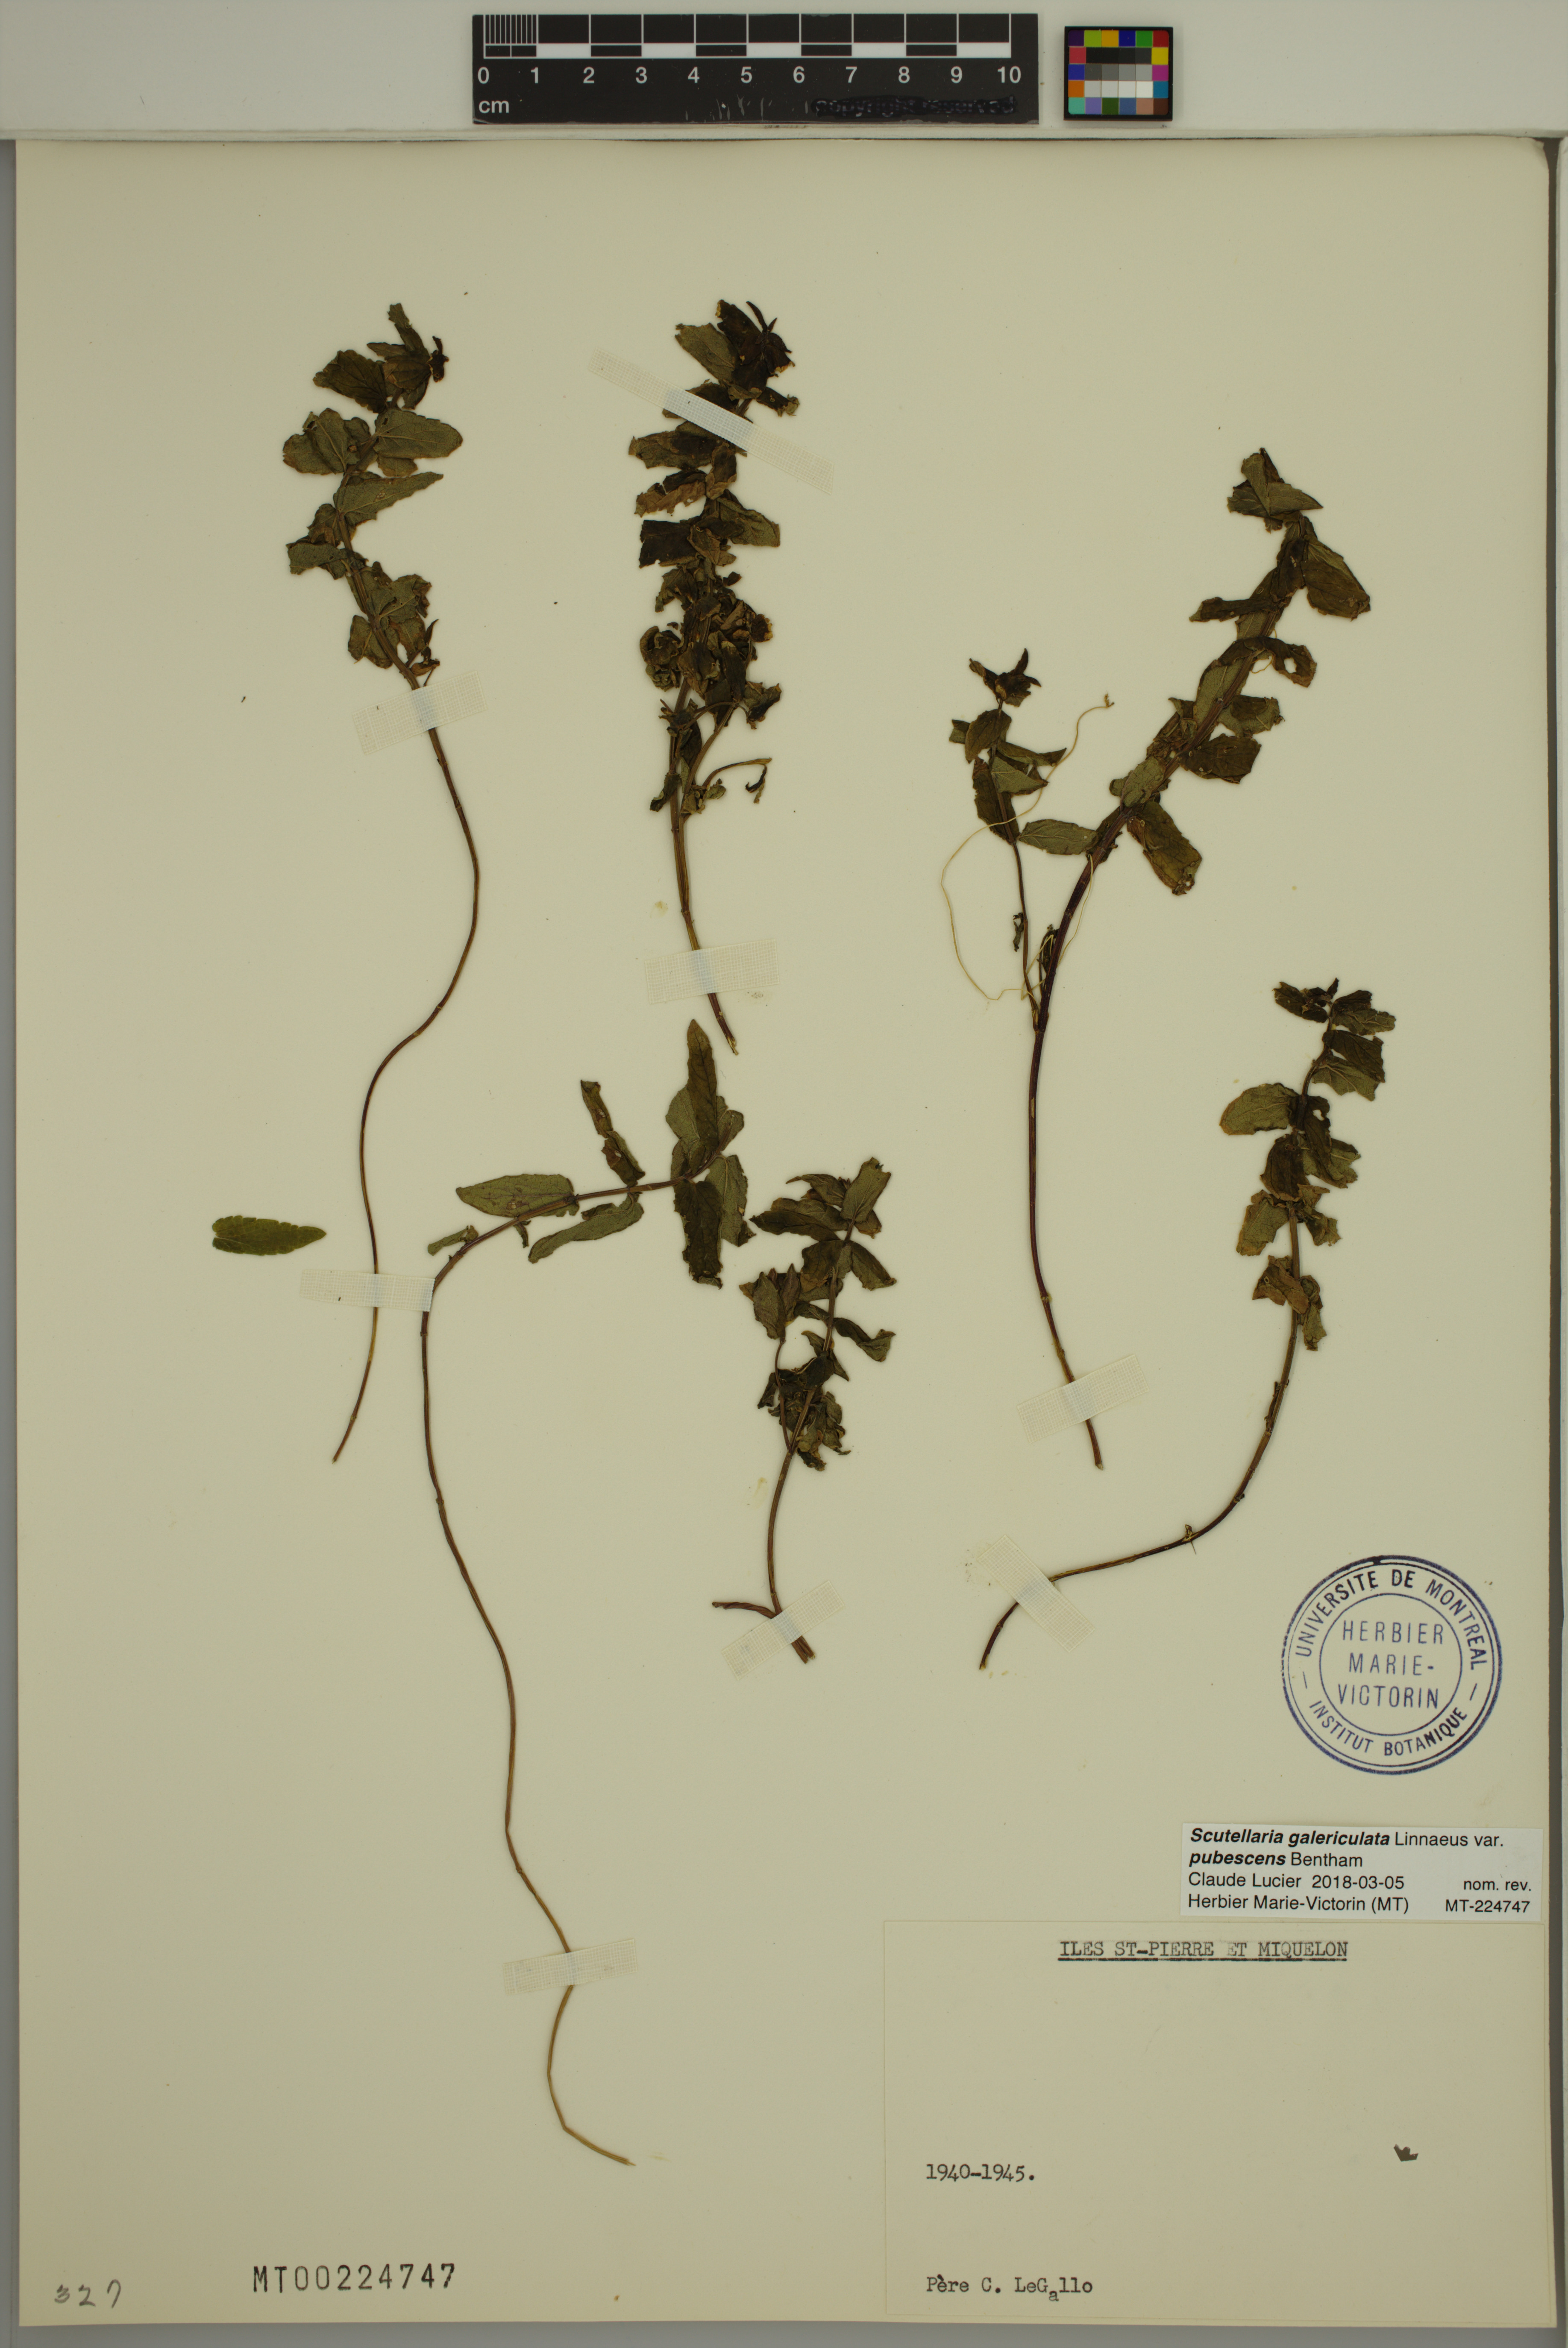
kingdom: Plantae
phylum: Tracheophyta
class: Magnoliopsida
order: Lamiales
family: Lamiaceae
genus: Scutellaria
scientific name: Scutellaria nicholsonii
